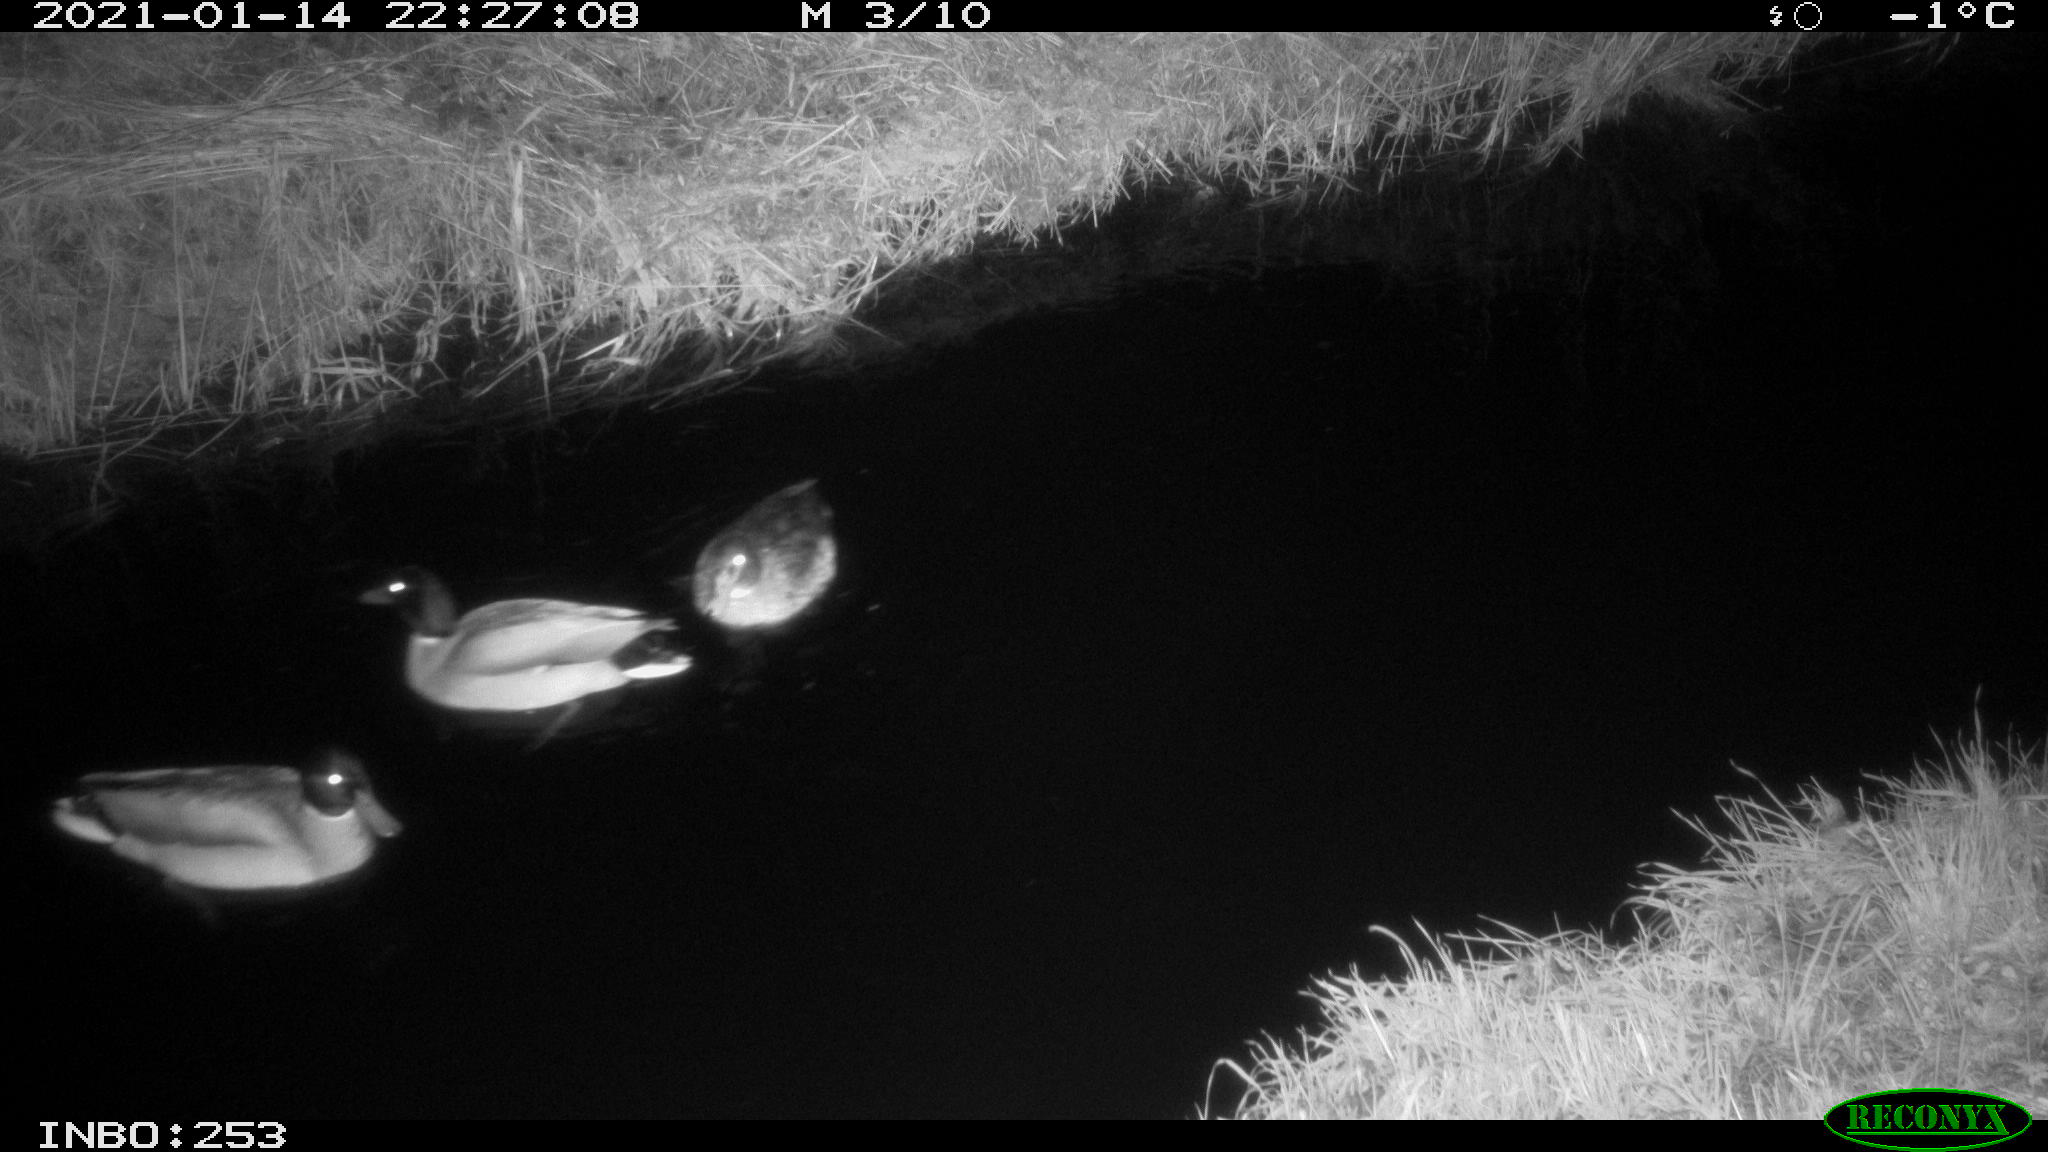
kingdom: Animalia
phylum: Chordata
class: Aves
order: Anseriformes
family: Anatidae
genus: Anas
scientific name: Anas platyrhynchos
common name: Mallard
